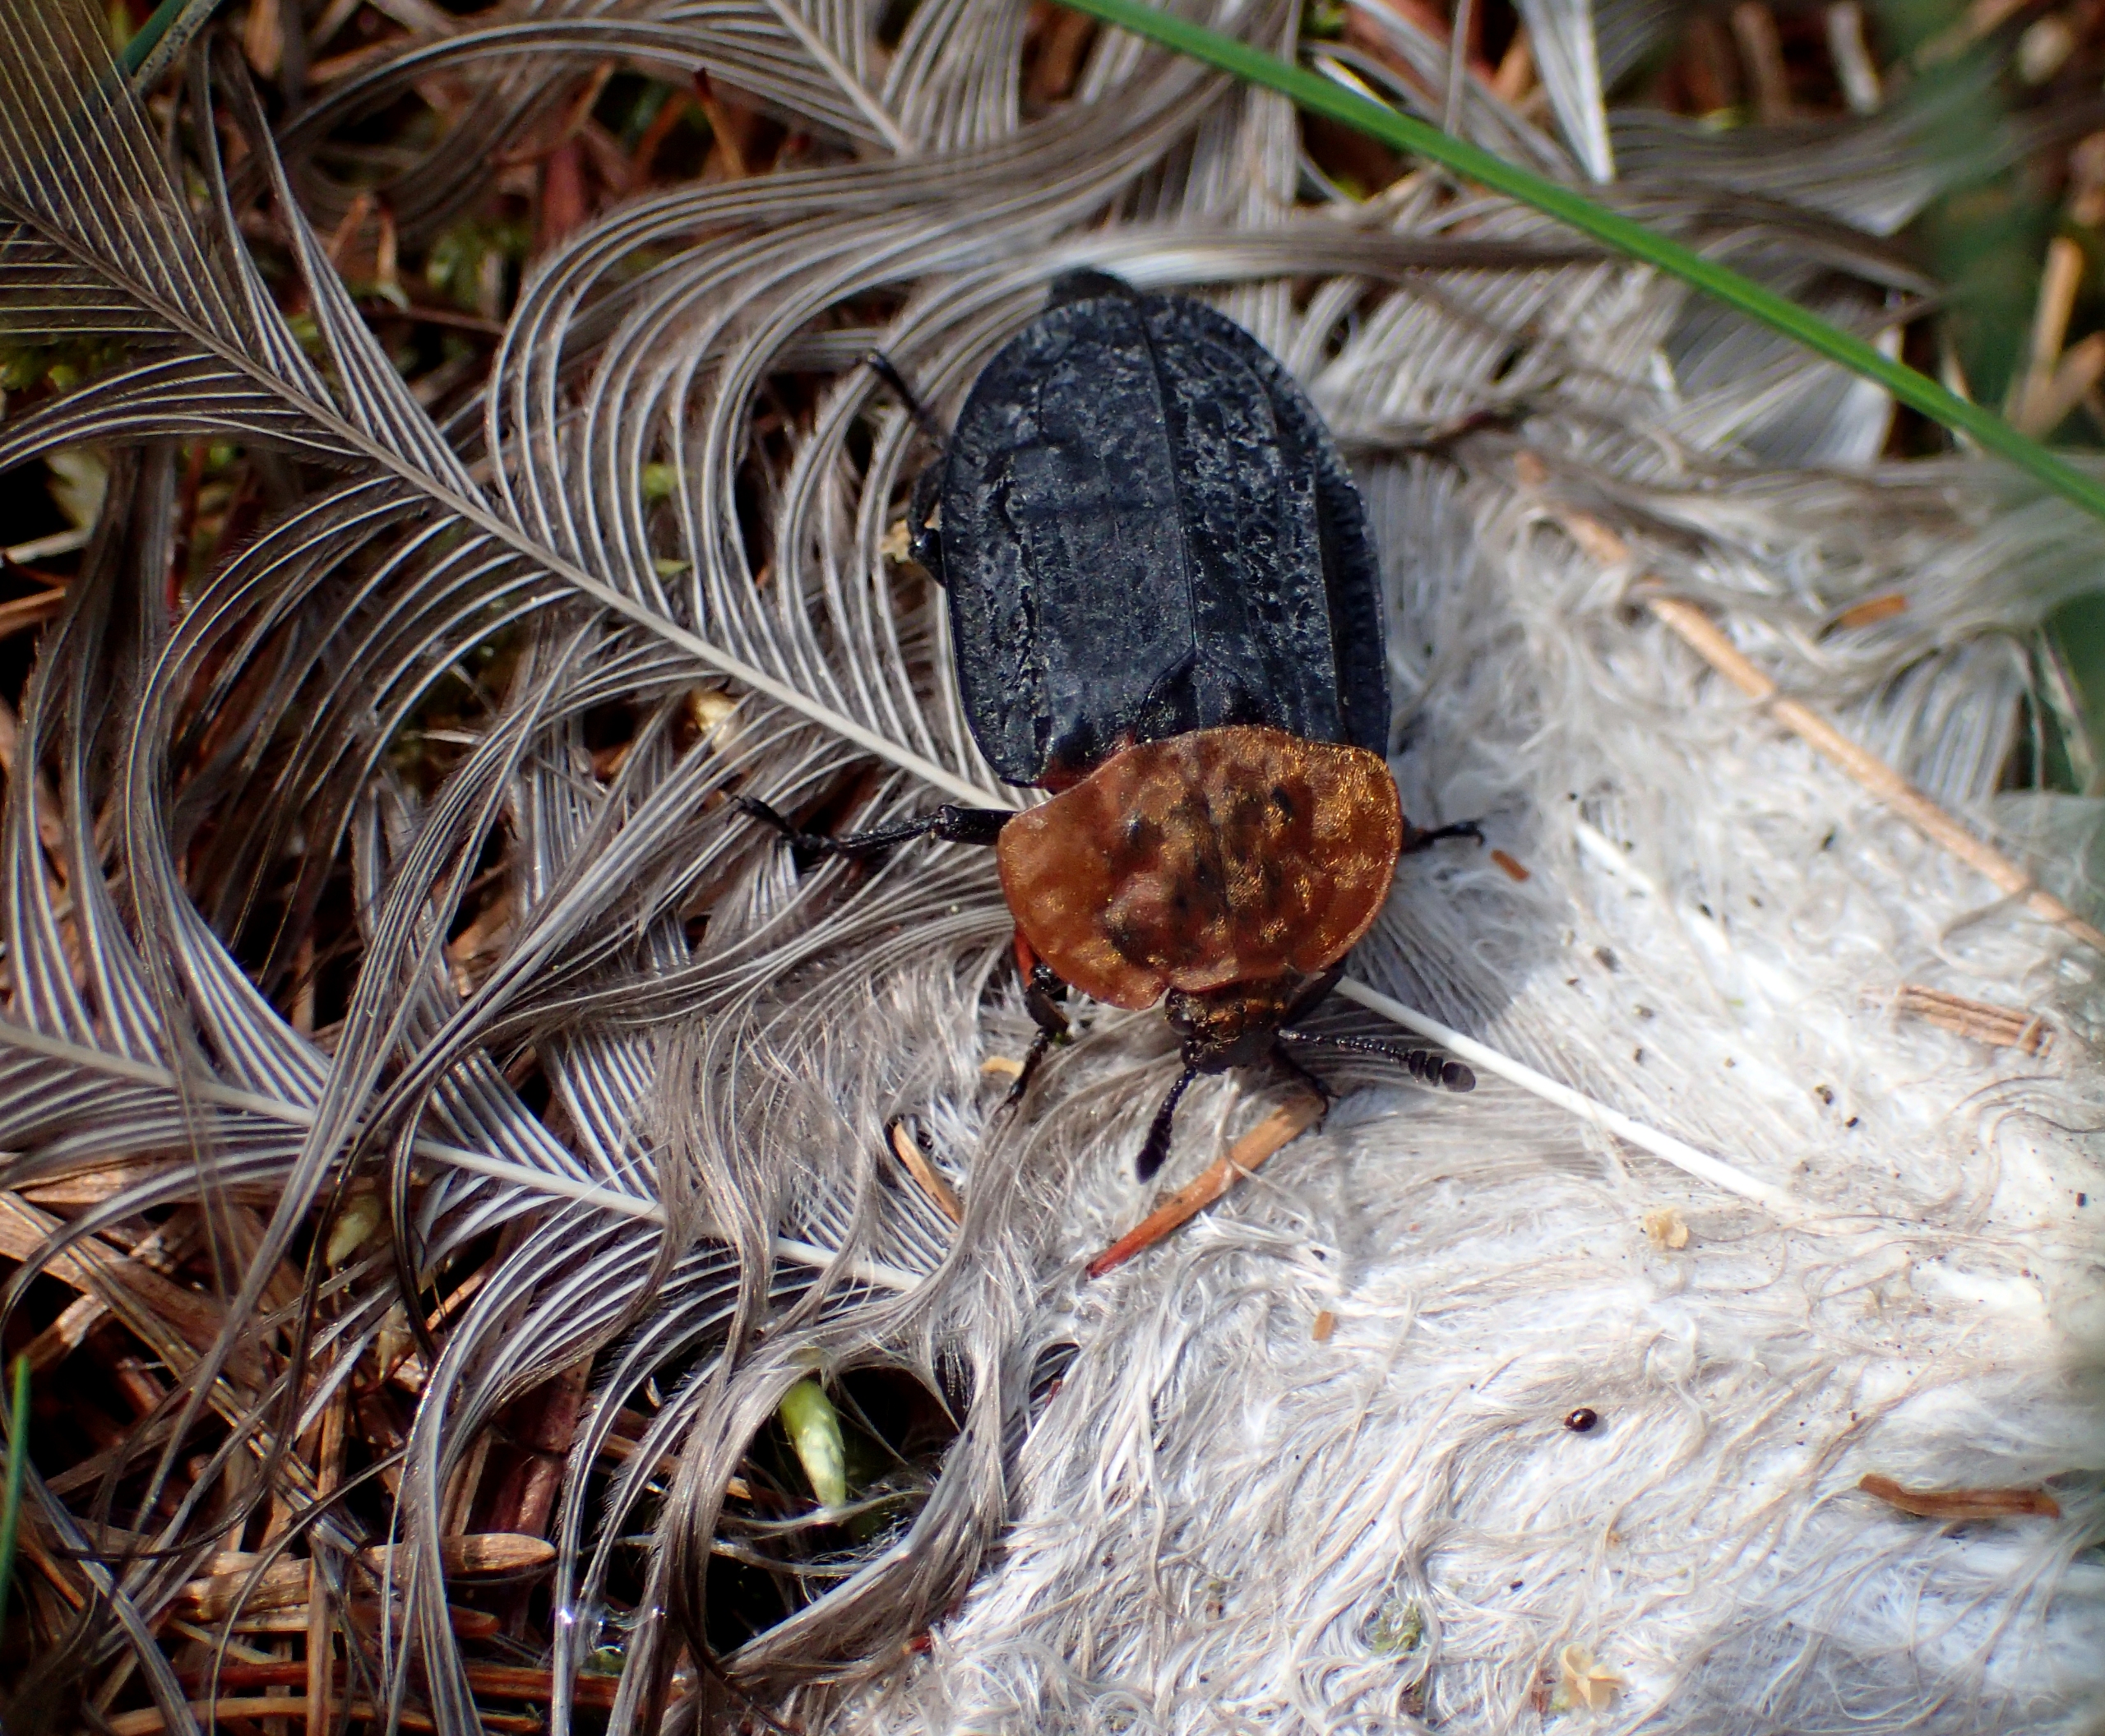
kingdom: Animalia
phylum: Arthropoda
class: Insecta
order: Coleoptera
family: Staphylinidae
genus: Oiceoptoma
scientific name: Oiceoptoma thoracicum
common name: Rødbrystet ådselbille
